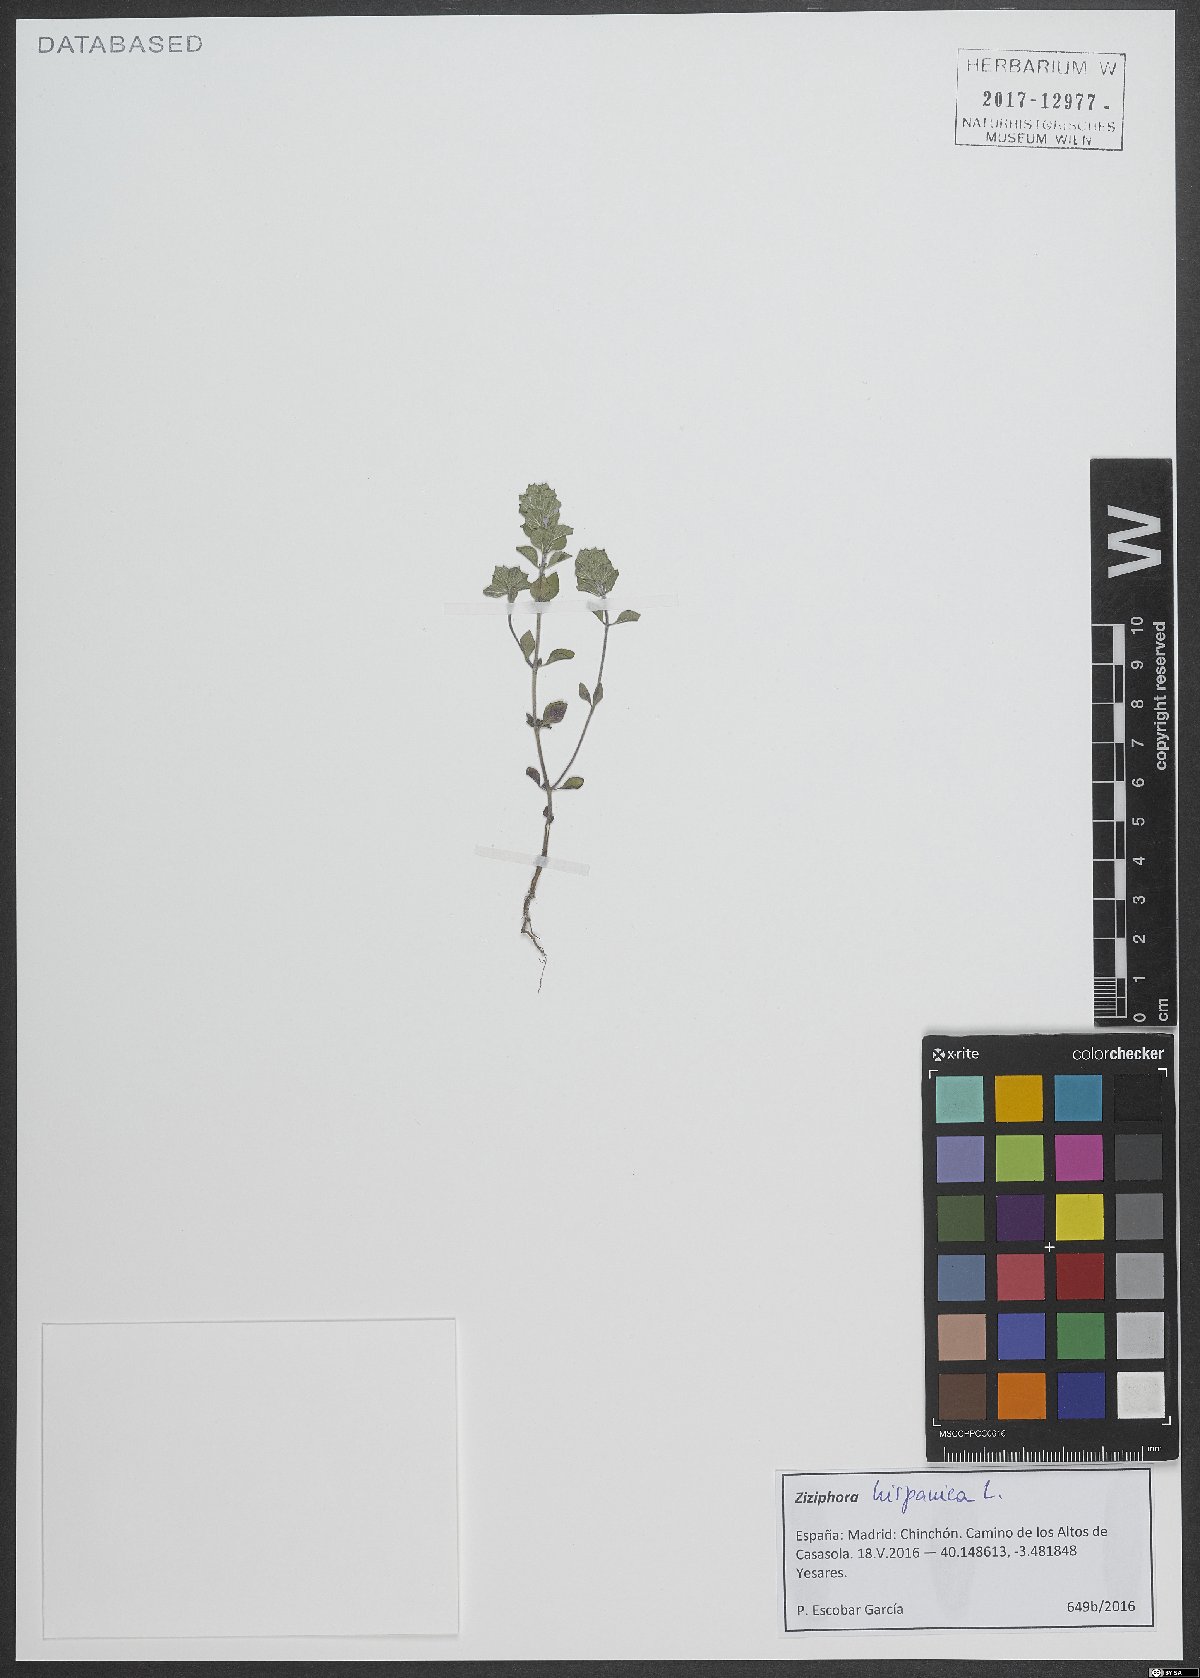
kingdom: Plantae
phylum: Tracheophyta
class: Magnoliopsida
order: Lamiales
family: Lamiaceae
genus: Ziziphora
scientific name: Ziziphora hispanica
